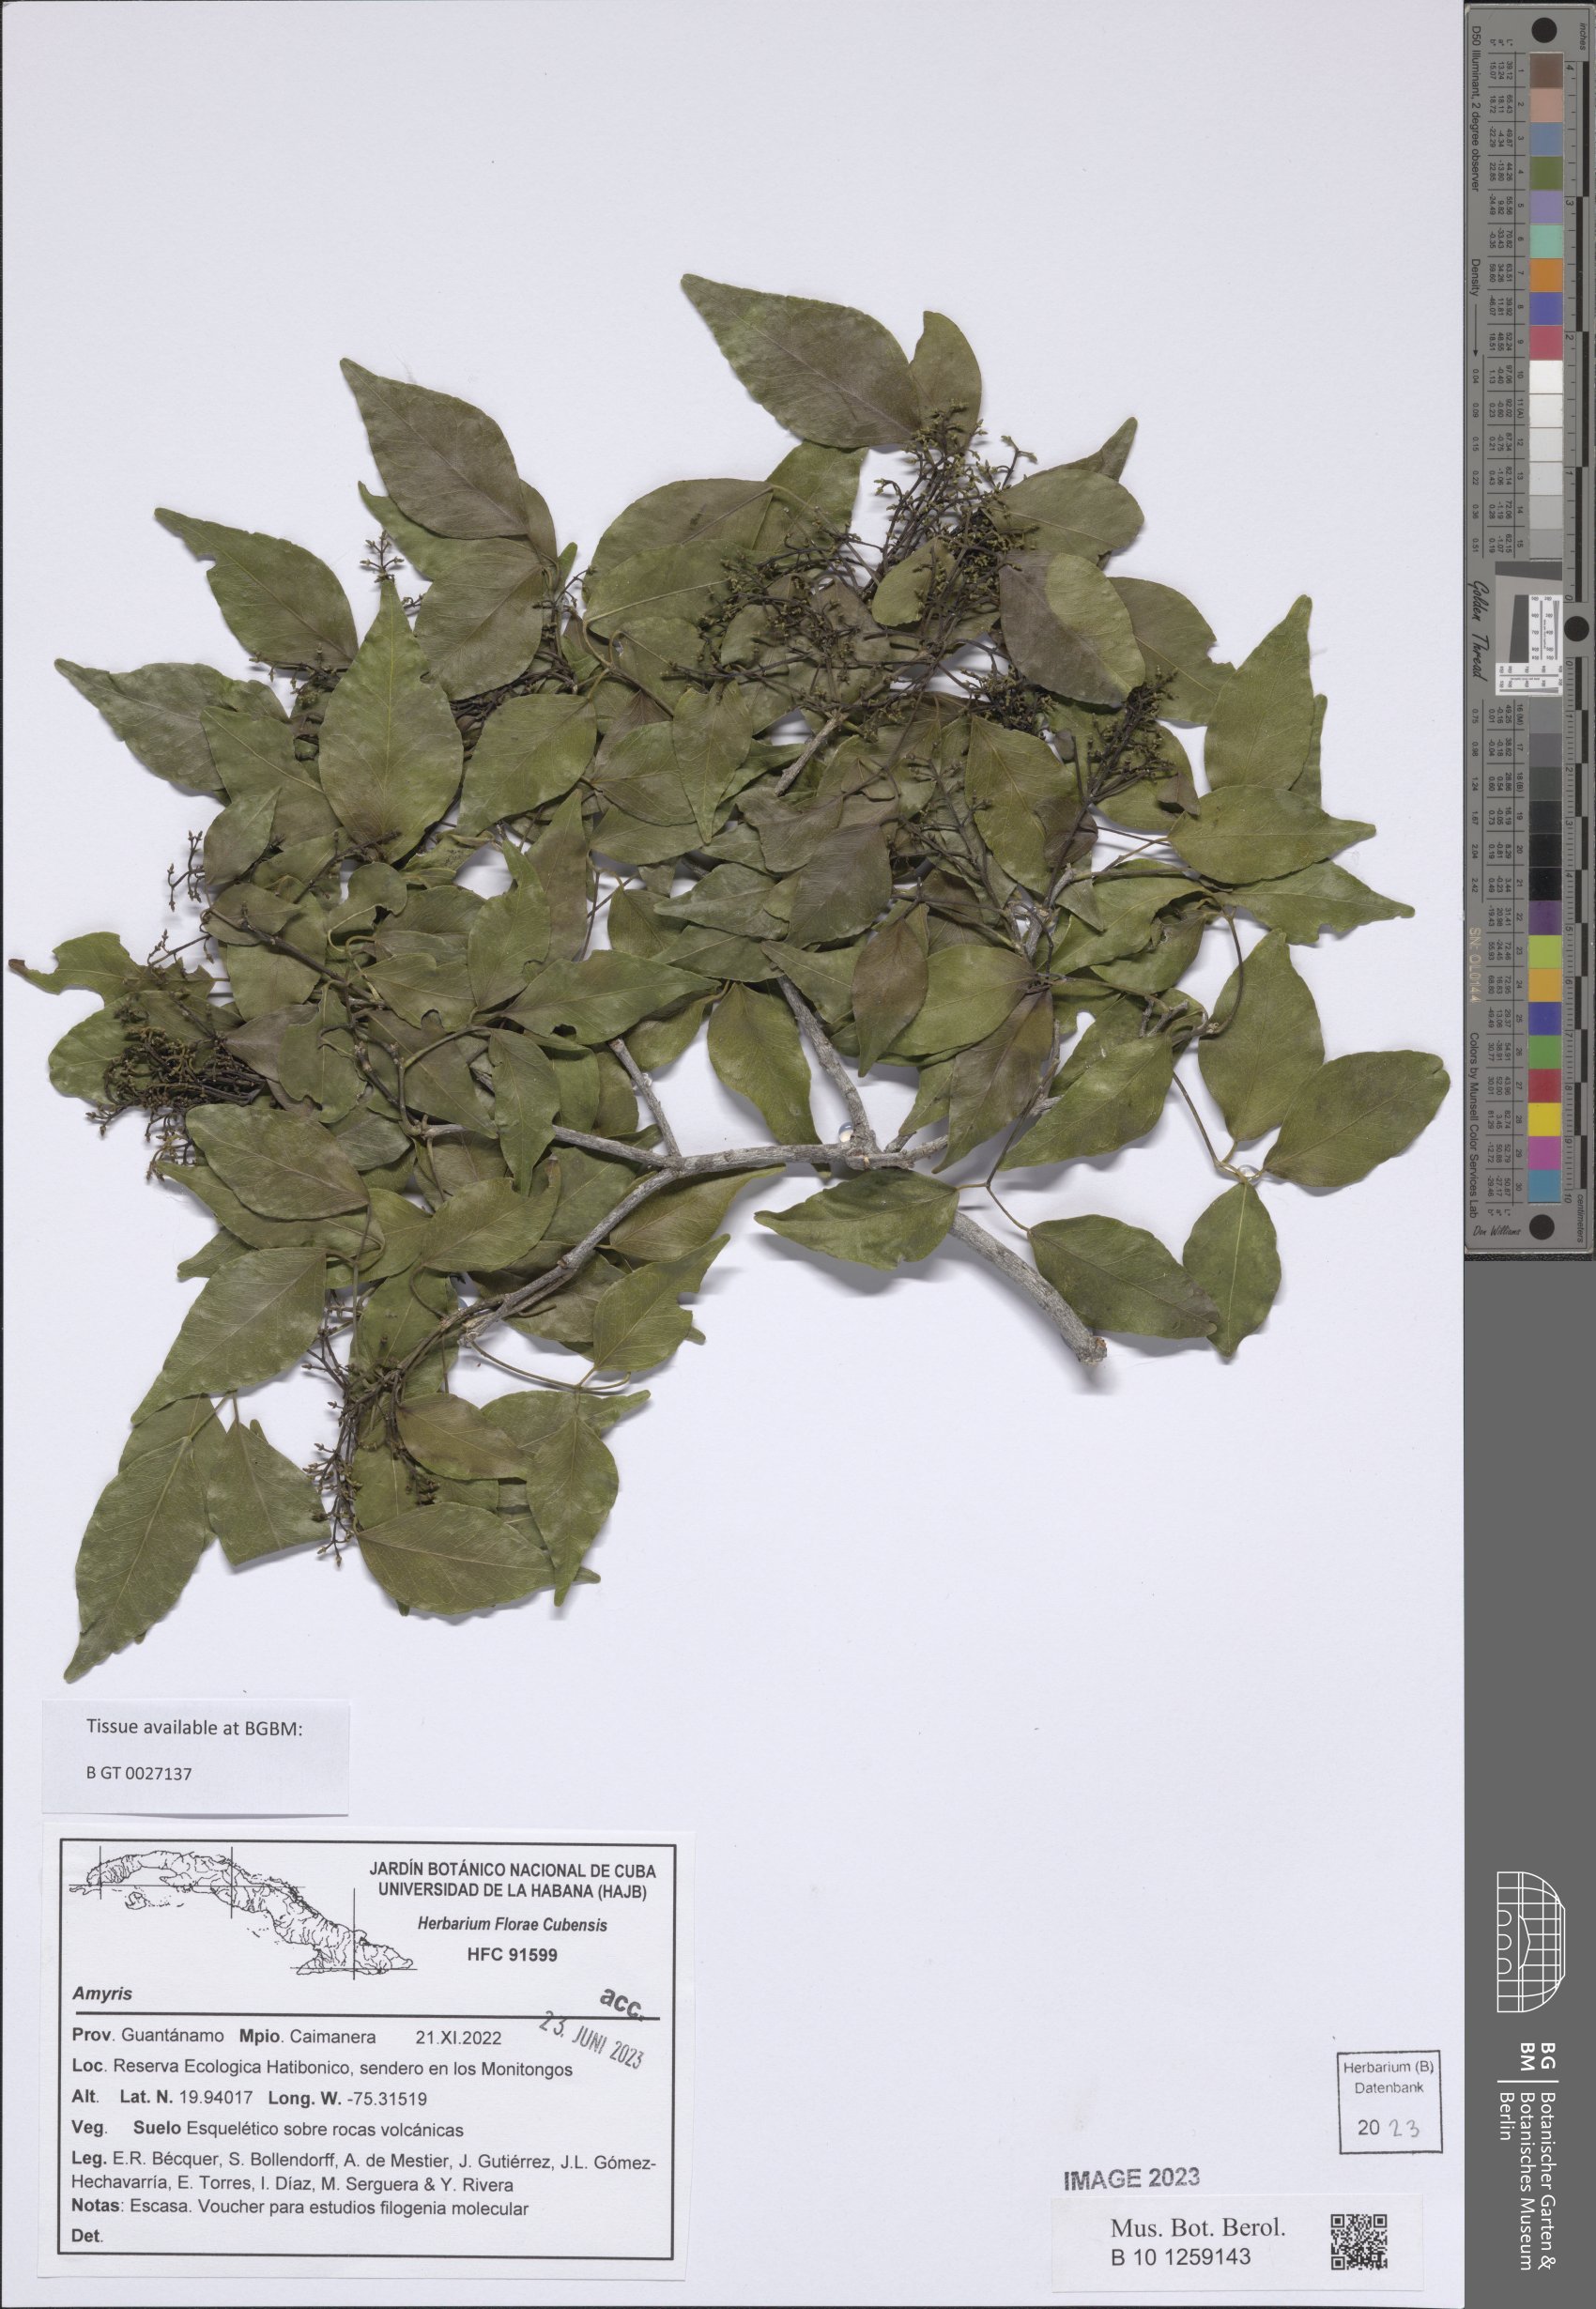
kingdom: Plantae
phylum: Tracheophyta
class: Magnoliopsida
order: Sapindales
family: Rutaceae
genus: Amyris
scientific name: Amyris
